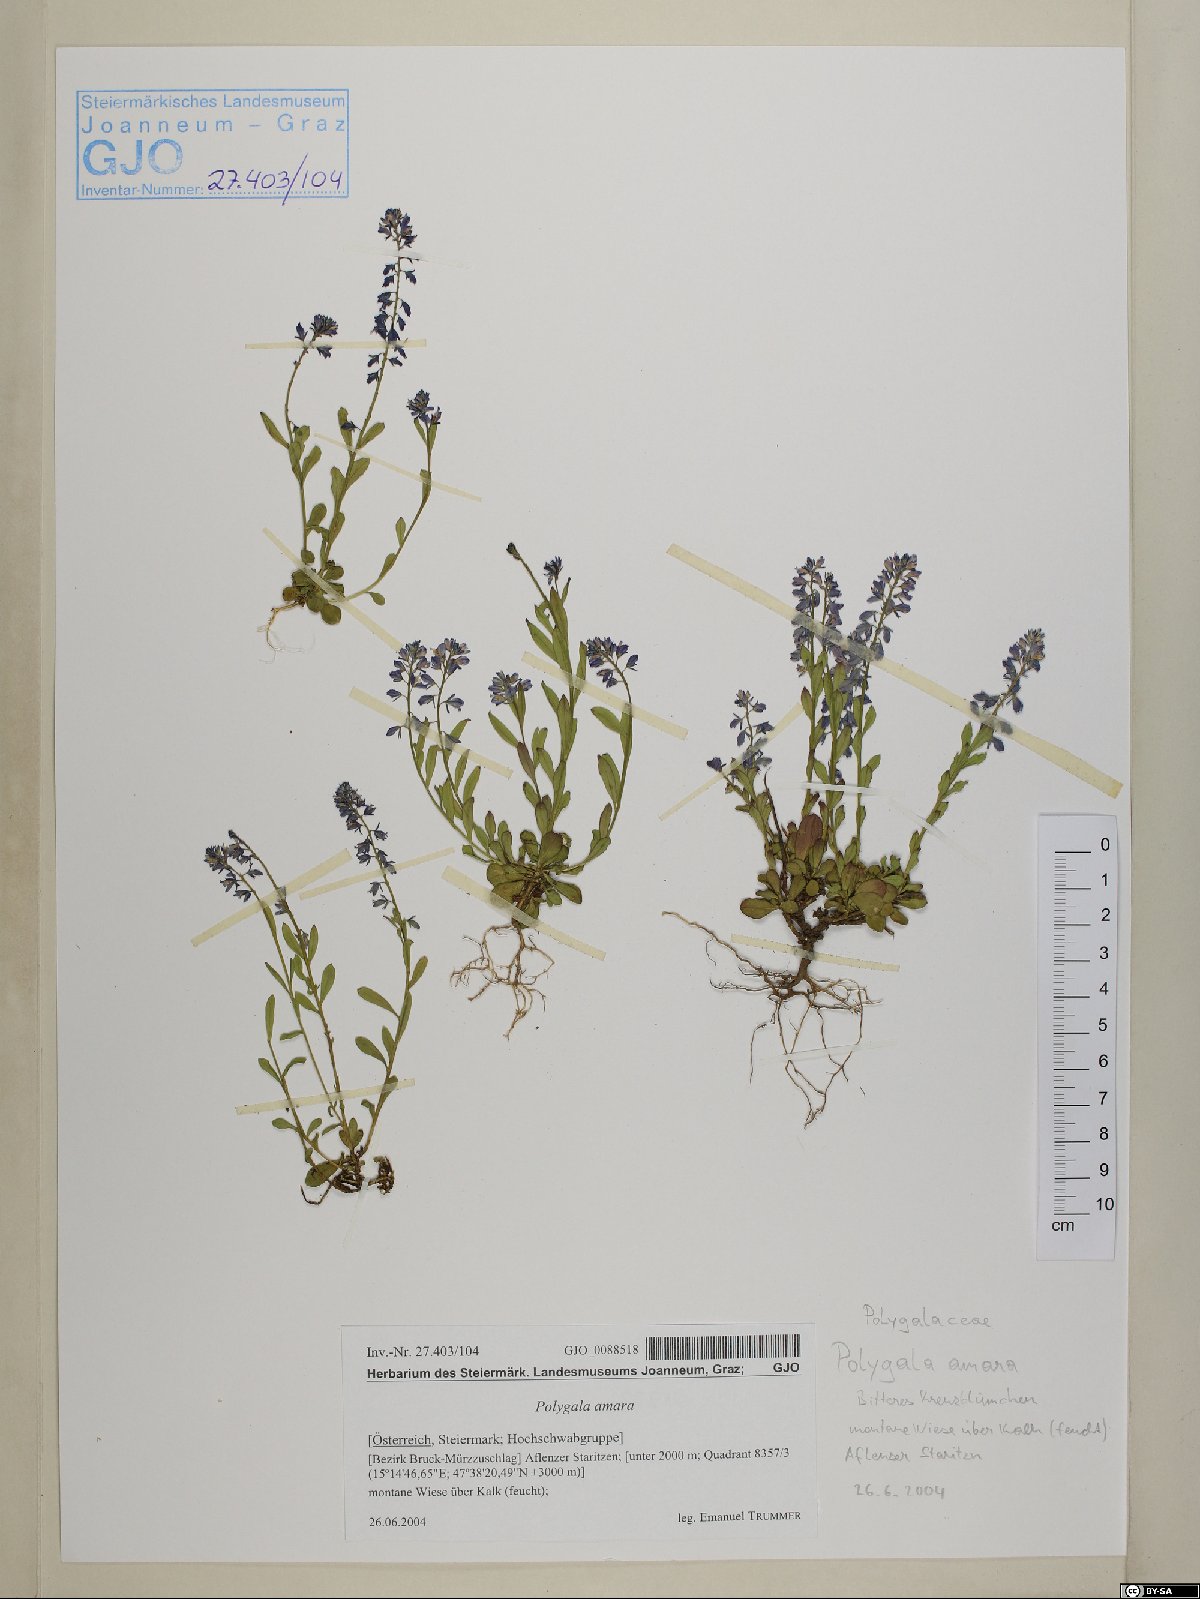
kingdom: Plantae
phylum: Tracheophyta
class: Magnoliopsida
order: Fabales
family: Polygalaceae
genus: Polygala
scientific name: Polygala amara
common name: Milkwort
